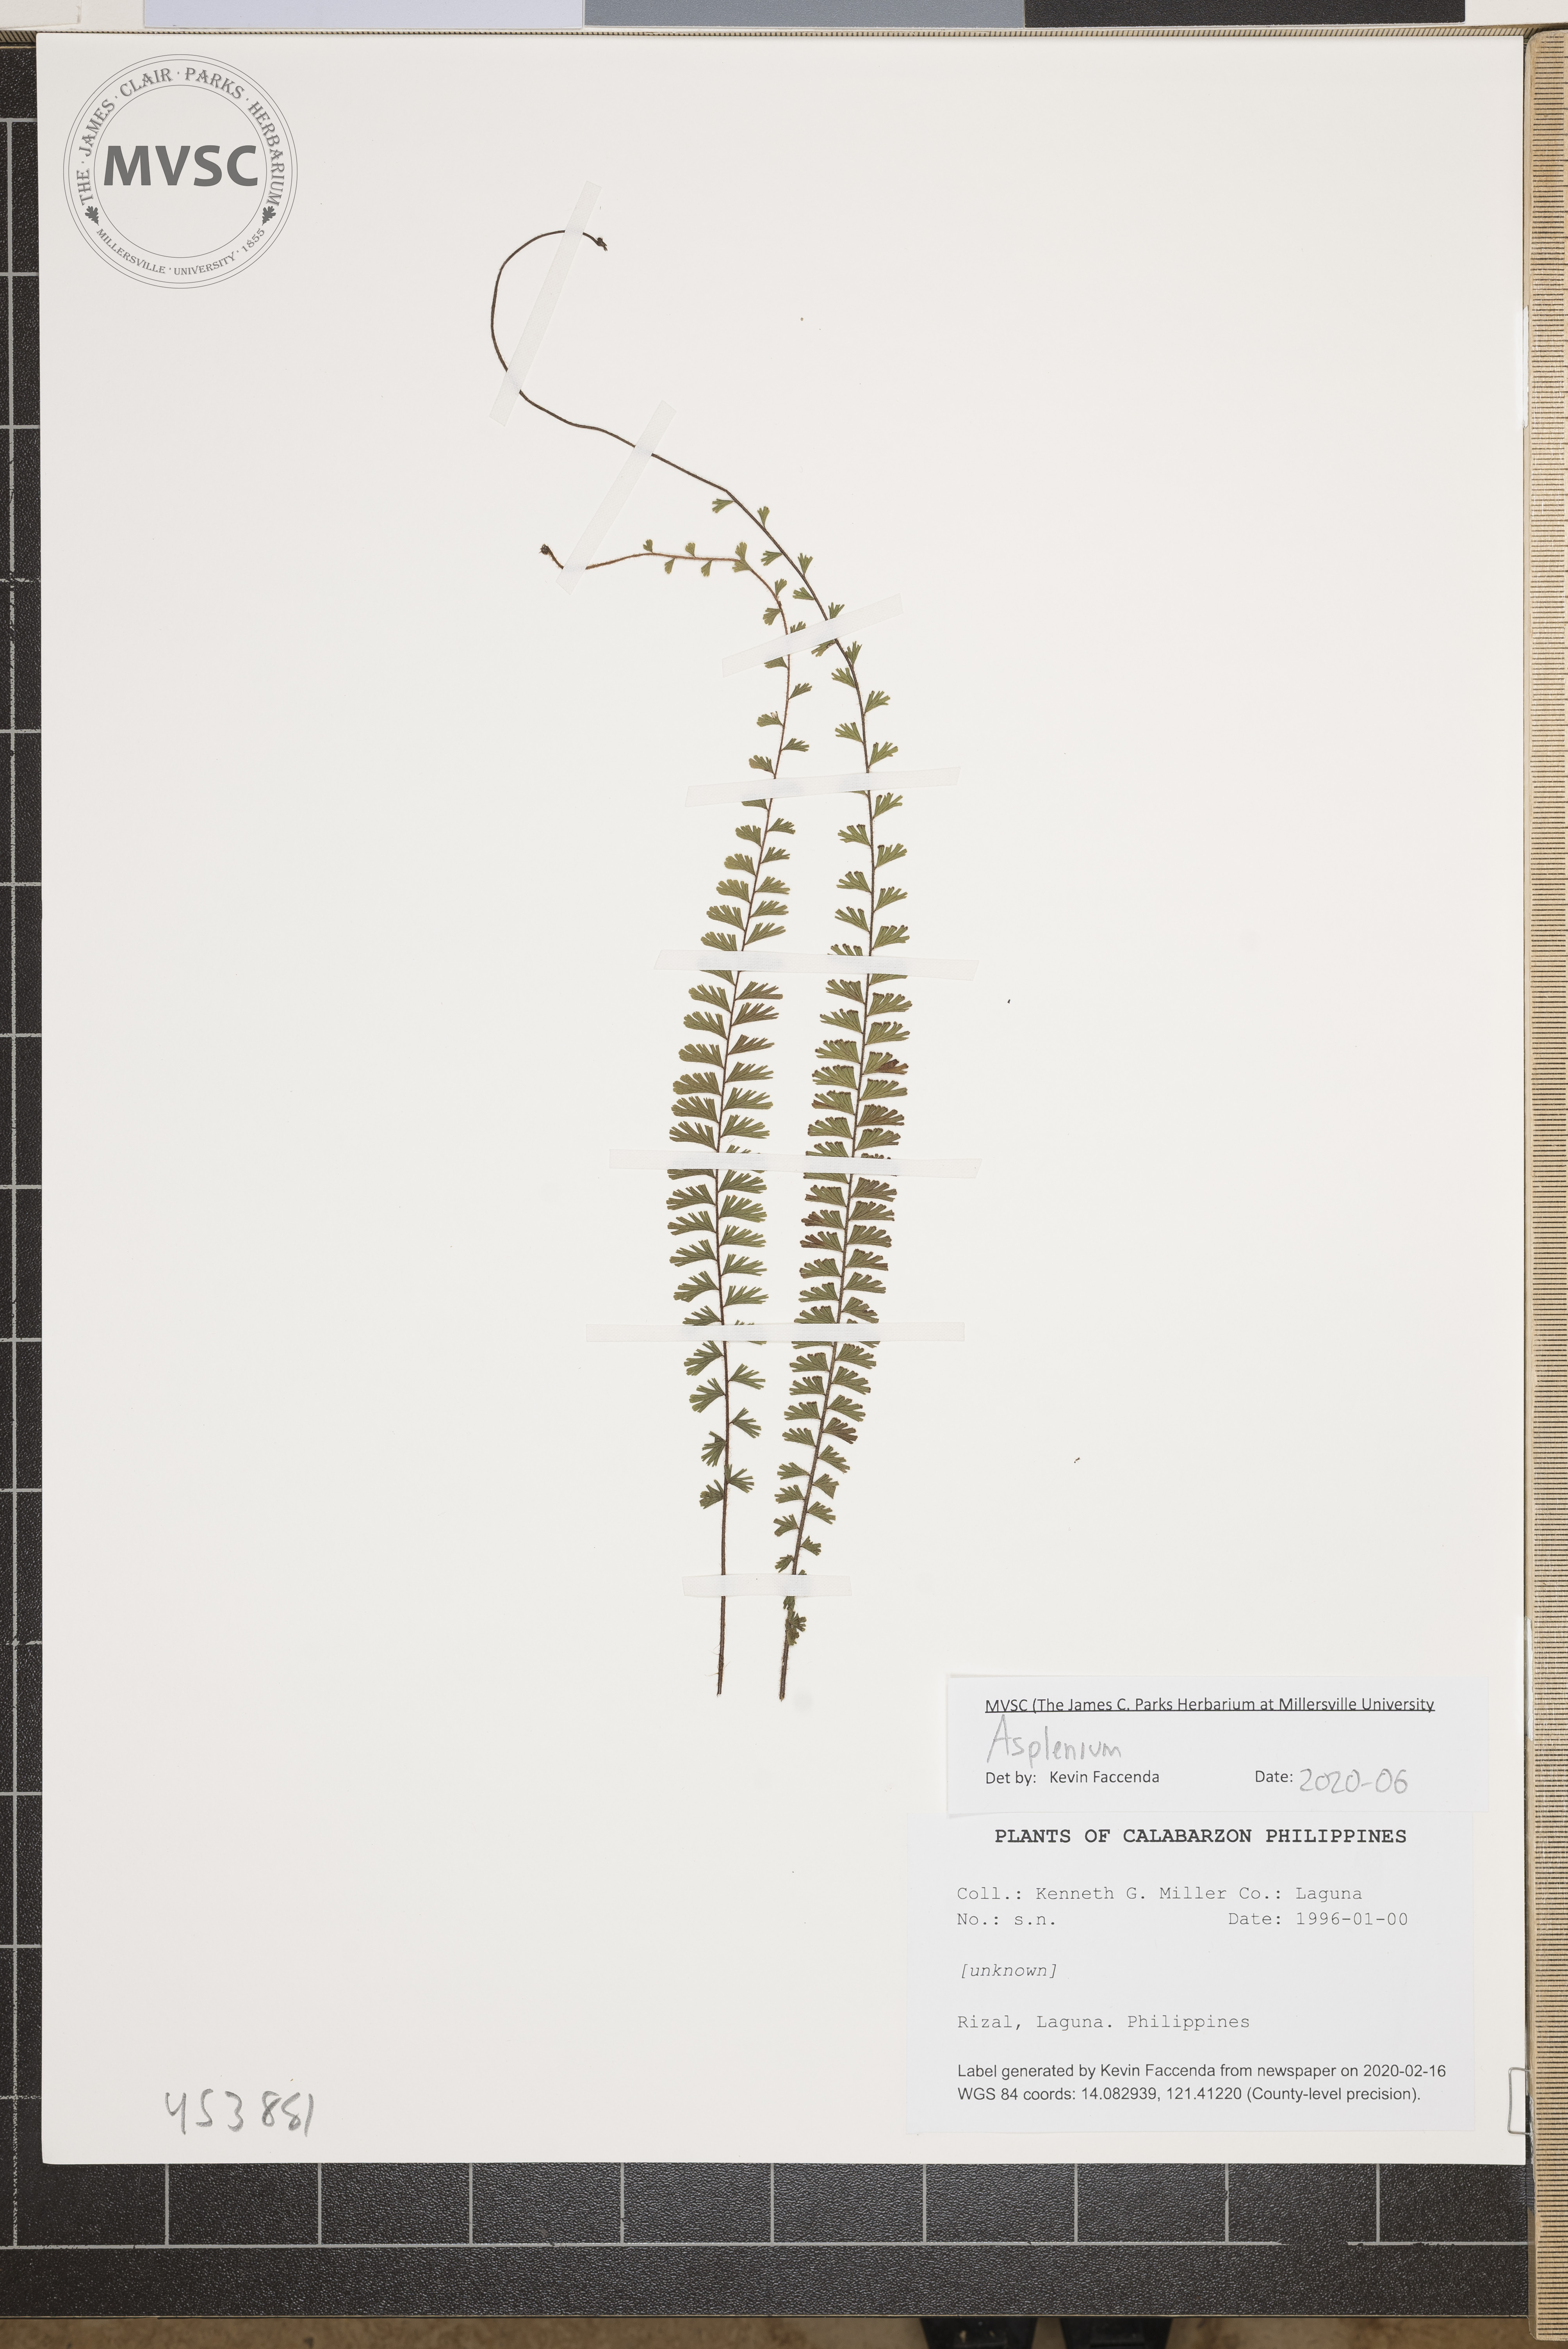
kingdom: Plantae
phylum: Tracheophyta
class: Polypodiopsida
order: Polypodiales
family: Aspleniaceae
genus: Asplenium
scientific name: Asplenium
